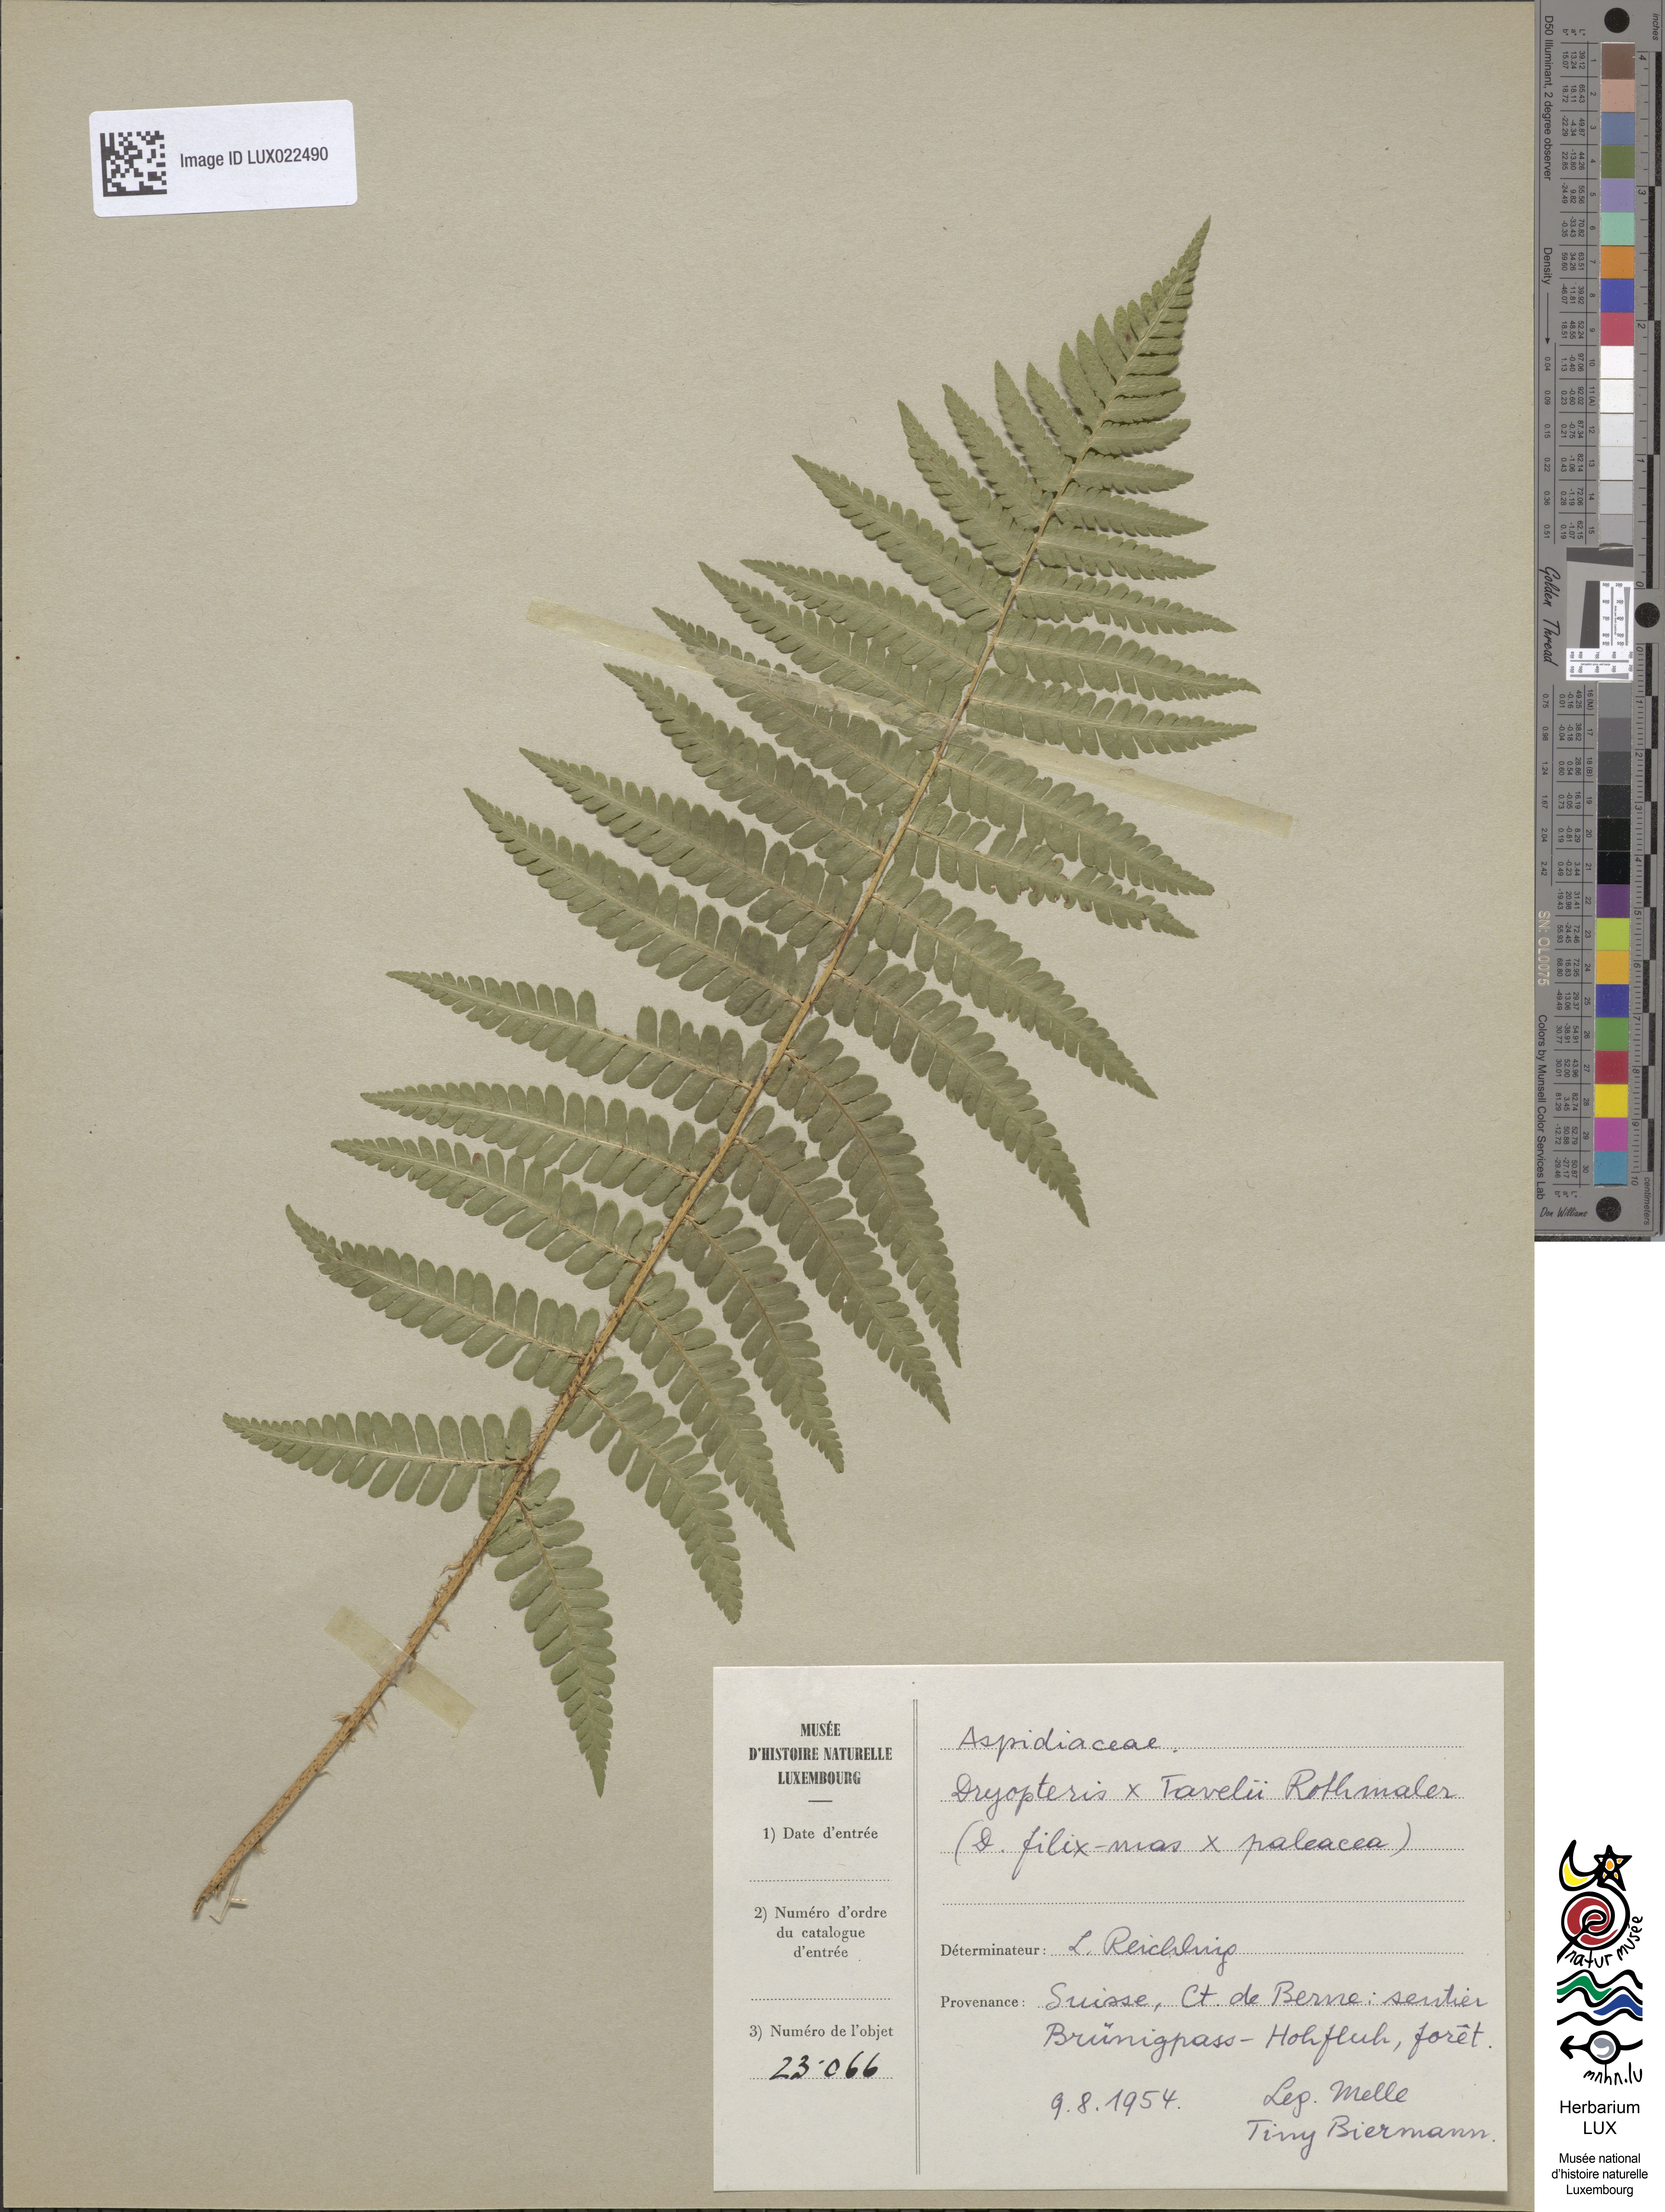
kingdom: Plantae
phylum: Tracheophyta
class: Polypodiopsida
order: Polypodiales
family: Dryopteridaceae
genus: Dryopteris
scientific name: Dryopteris borreri
